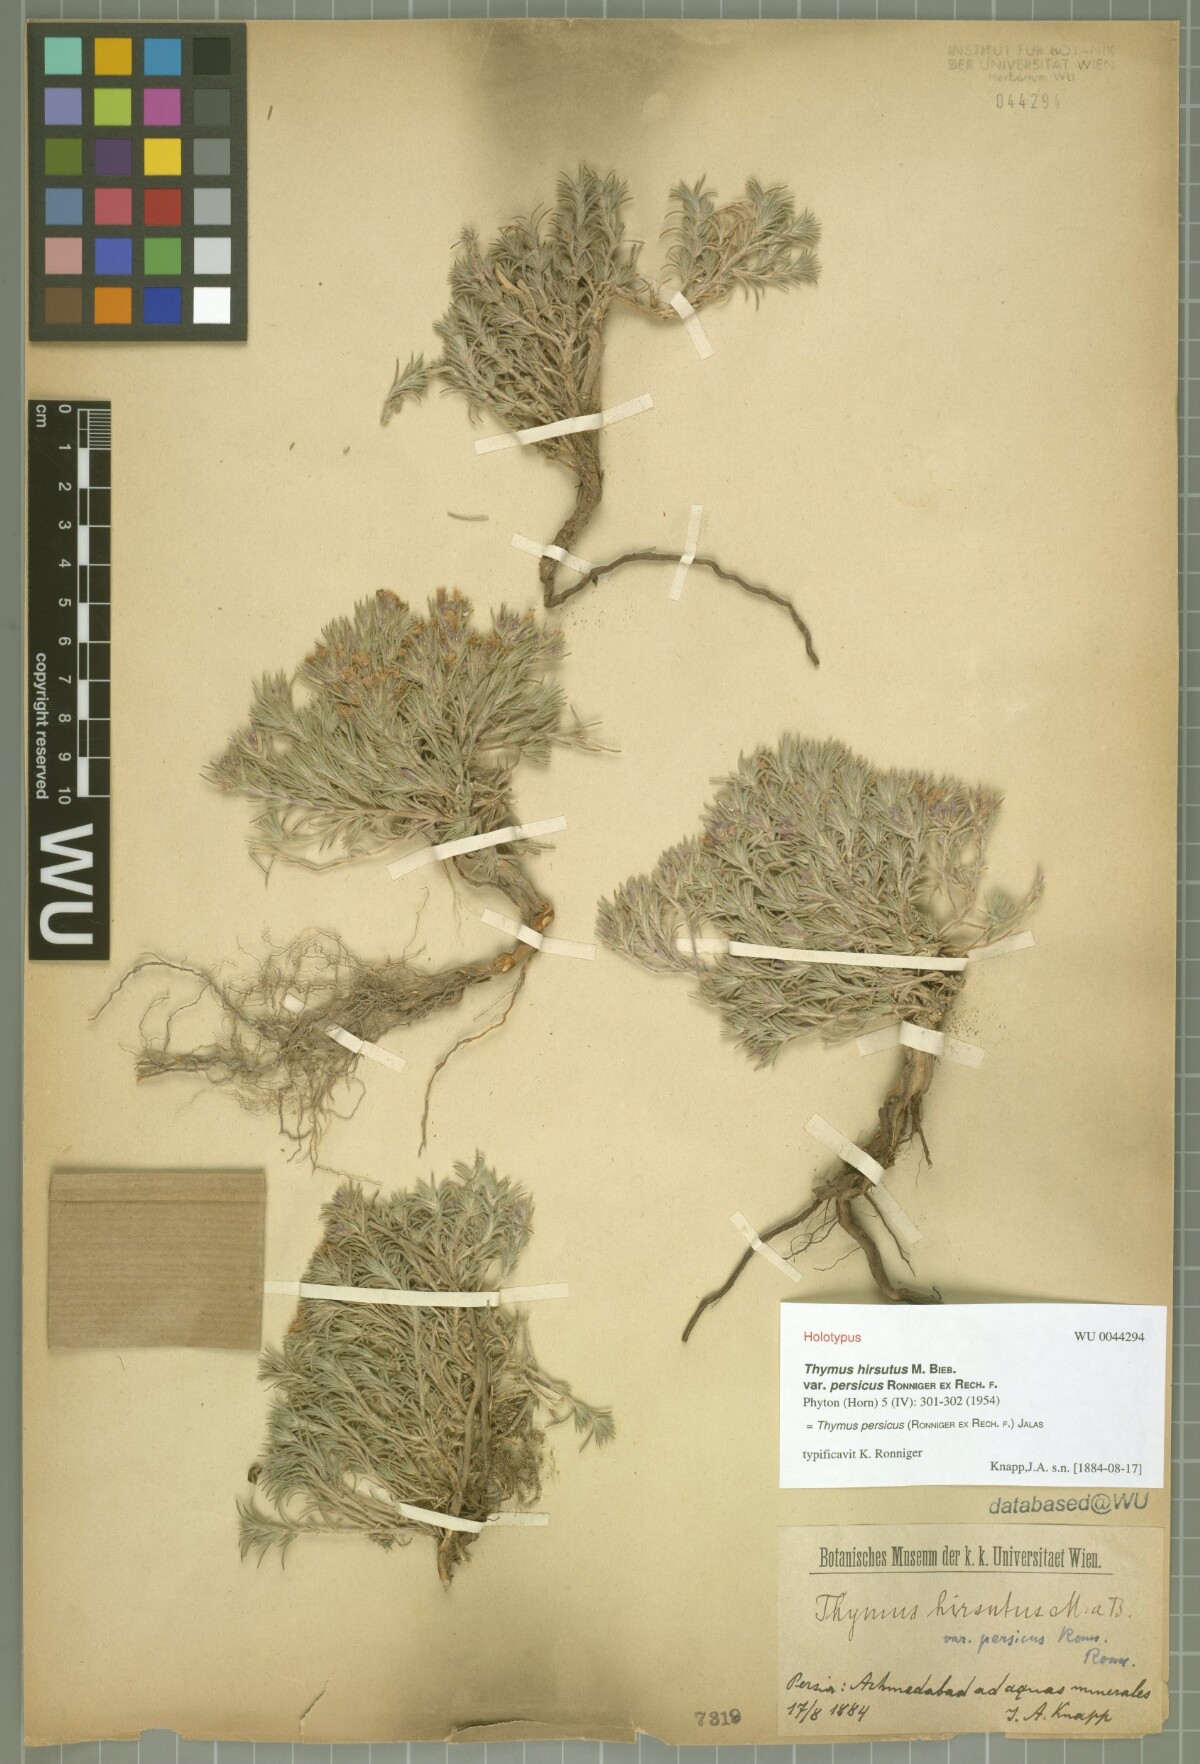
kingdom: Plantae
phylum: Tracheophyta
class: Magnoliopsida
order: Lamiales
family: Lamiaceae
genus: Thymus
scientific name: Thymus persicus
